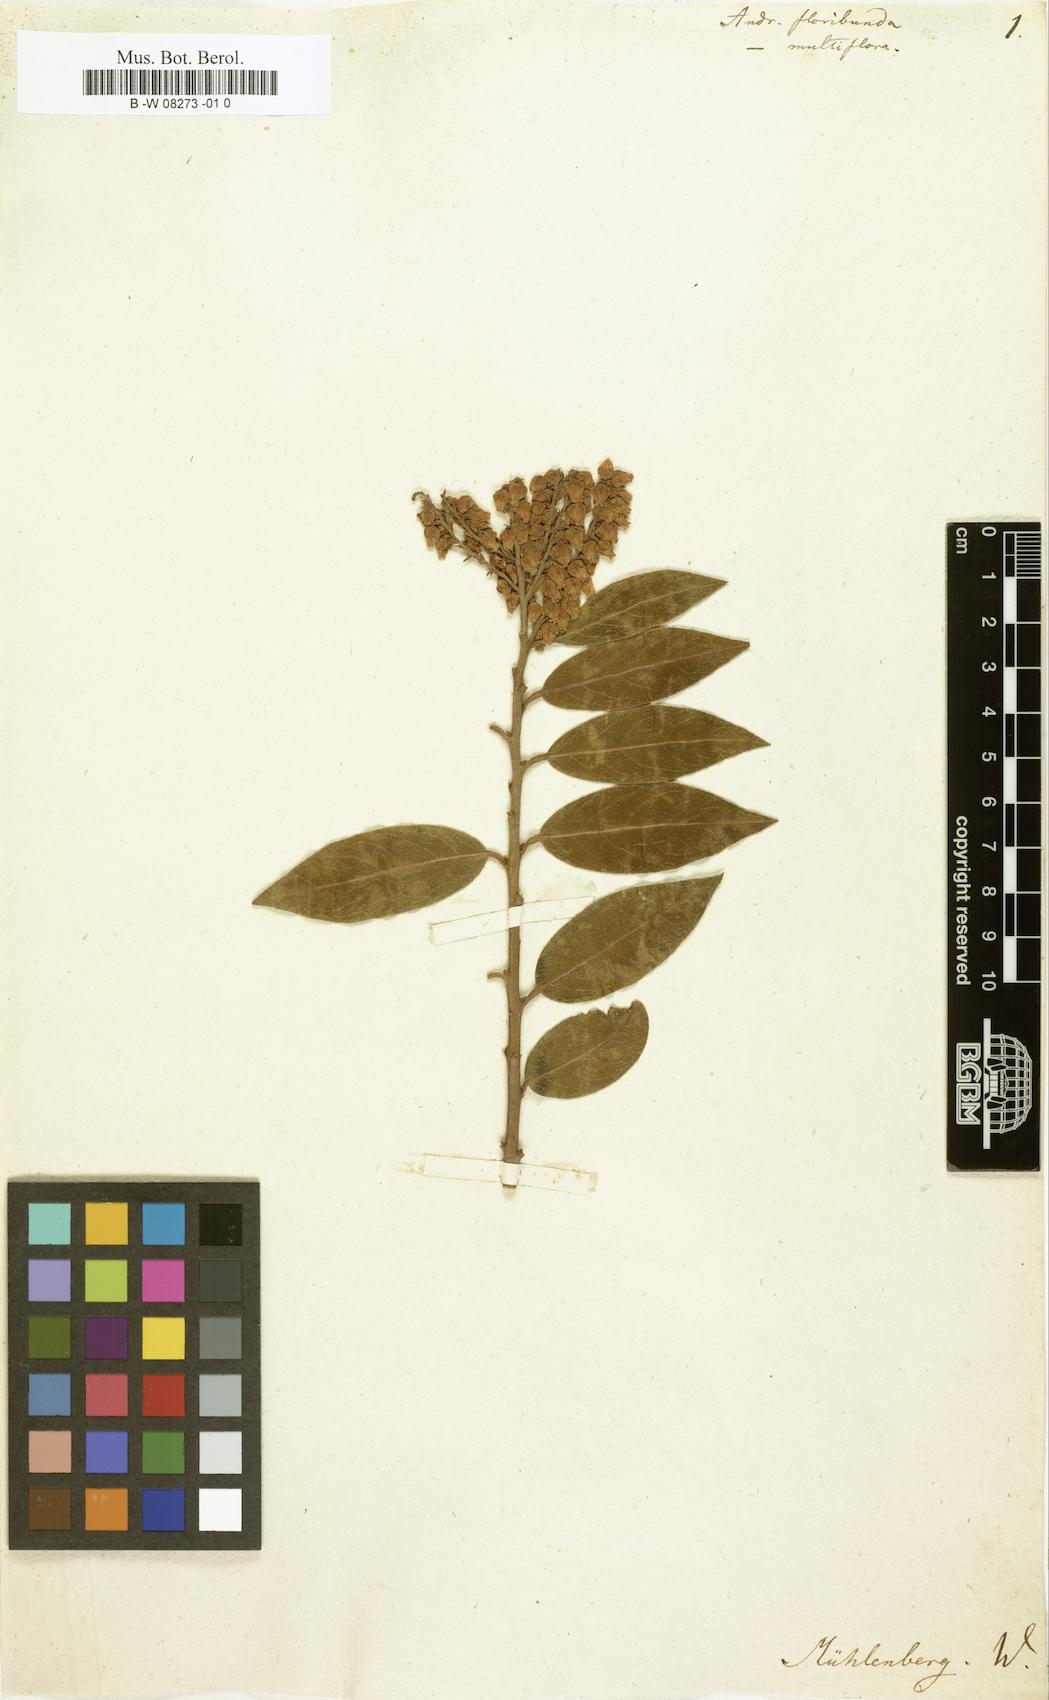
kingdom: Plantae
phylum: Tracheophyta
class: Magnoliopsida
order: Ericales
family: Ericaceae
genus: Pieris
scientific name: Pieris floribunda
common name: Flutterbush
